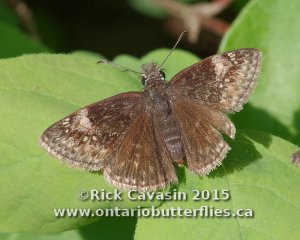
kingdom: Animalia
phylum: Arthropoda
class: Insecta
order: Lepidoptera
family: Hesperiidae
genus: Gesta
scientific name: Gesta
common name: Columbine Duskywing
